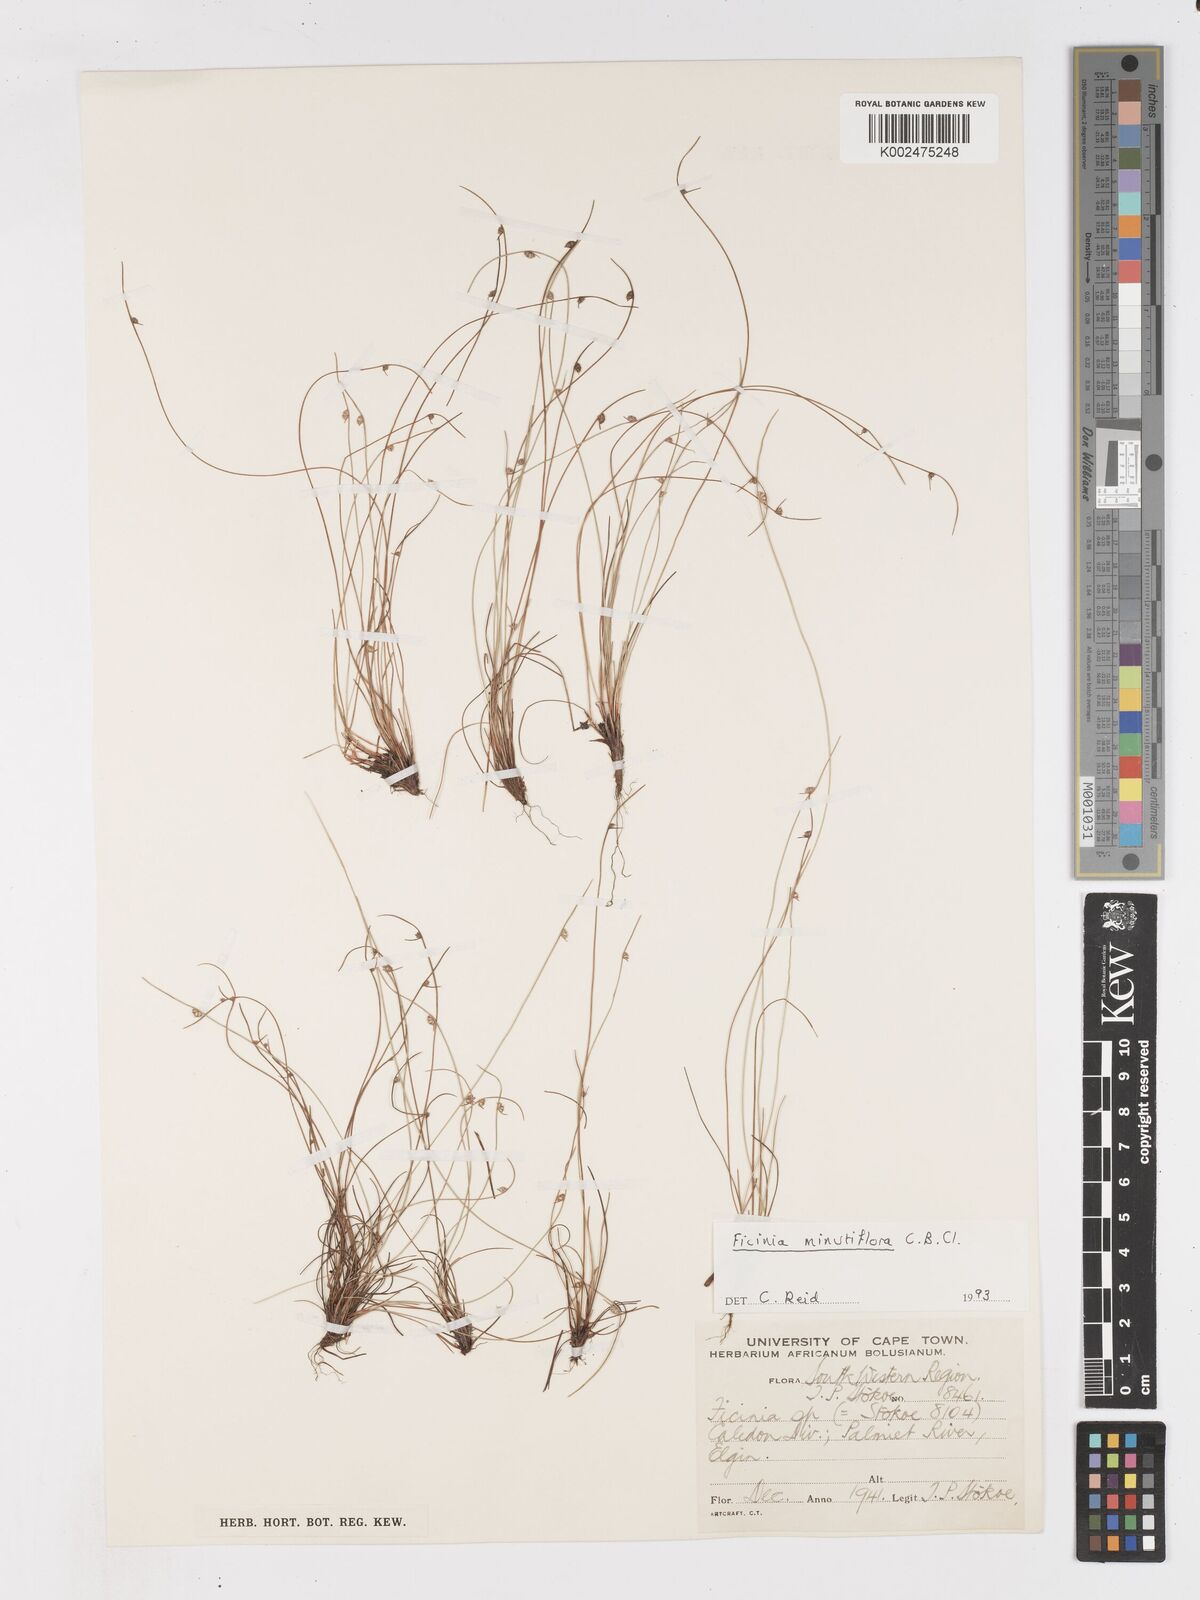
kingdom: Plantae
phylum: Tracheophyta
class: Liliopsida
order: Poales
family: Cyperaceae
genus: Ficinia
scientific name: Ficinia minutiflora
